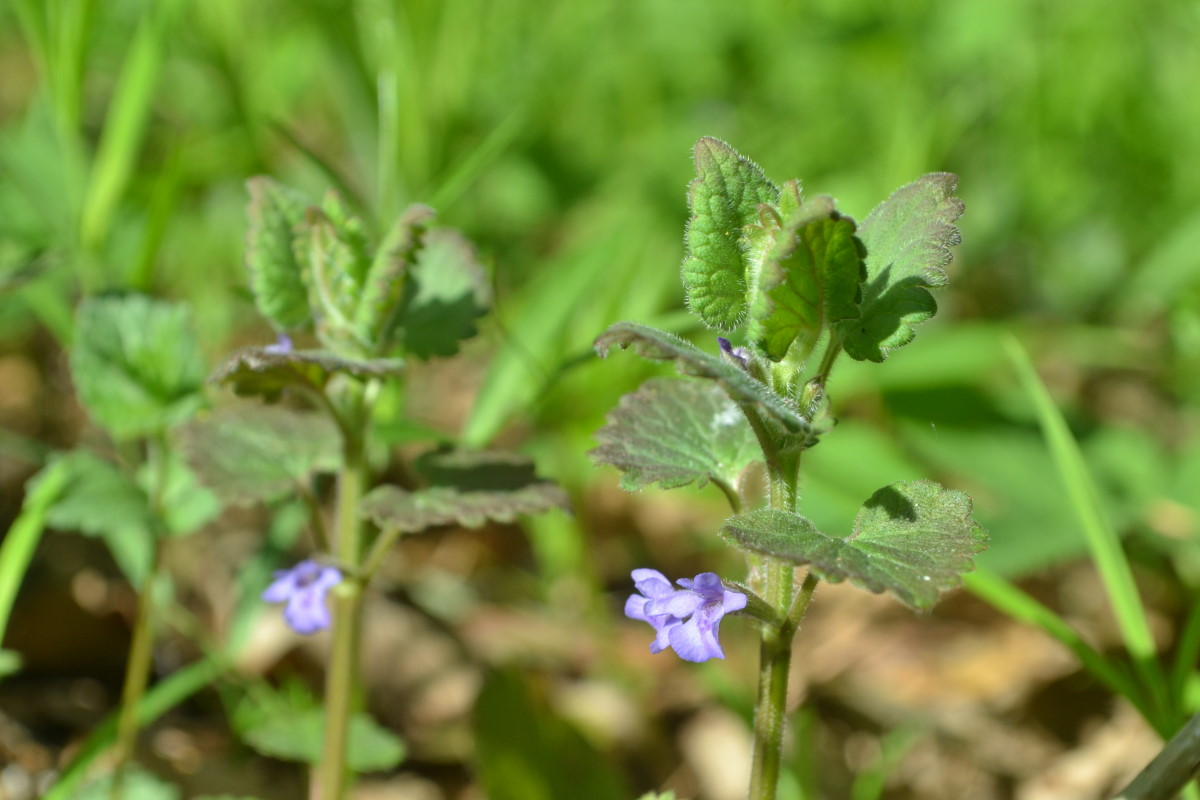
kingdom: Plantae
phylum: Tracheophyta
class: Magnoliopsida
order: Lamiales
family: Lamiaceae
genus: Glechoma
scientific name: Glechoma hederacea
